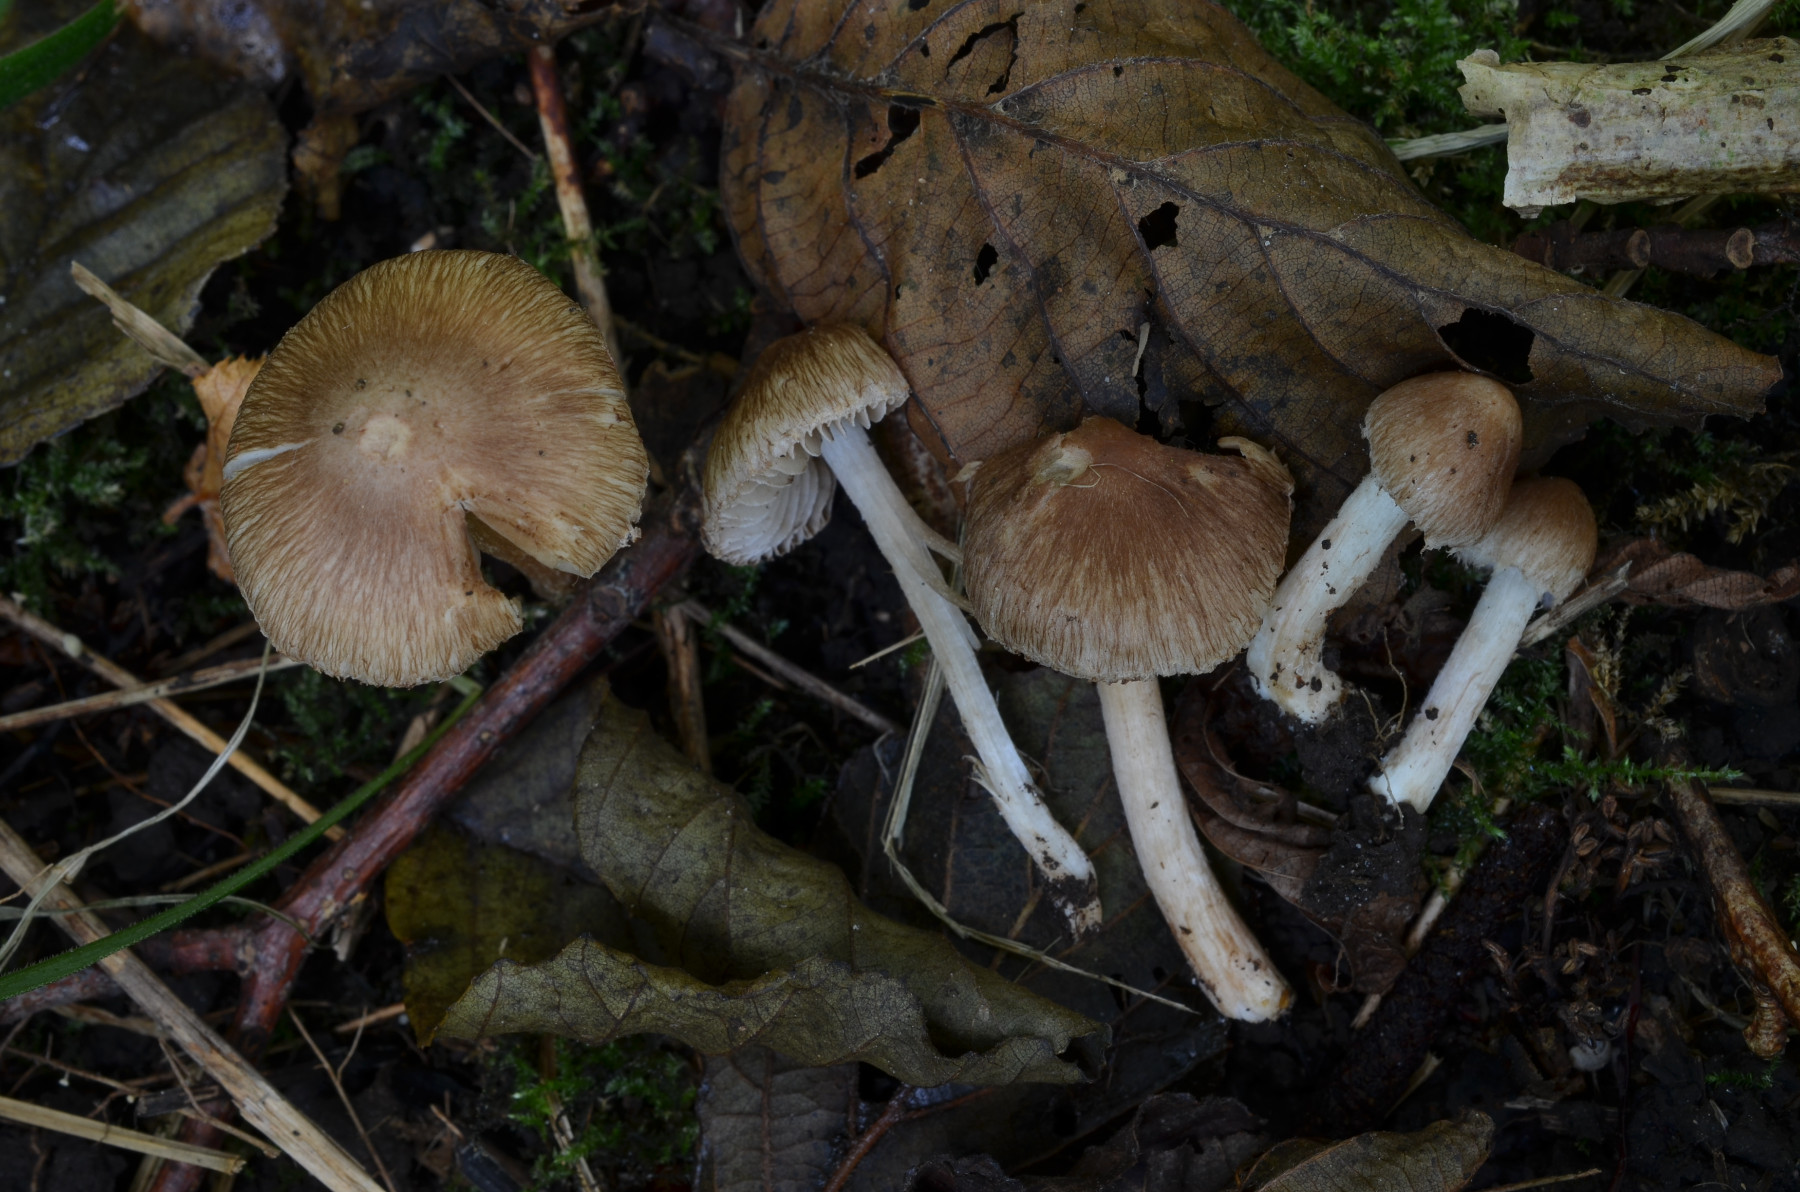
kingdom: Fungi
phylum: Basidiomycota
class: Agaricomycetes
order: Agaricales
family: Inocybaceae
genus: Inocybe
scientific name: Inocybe jucunda
